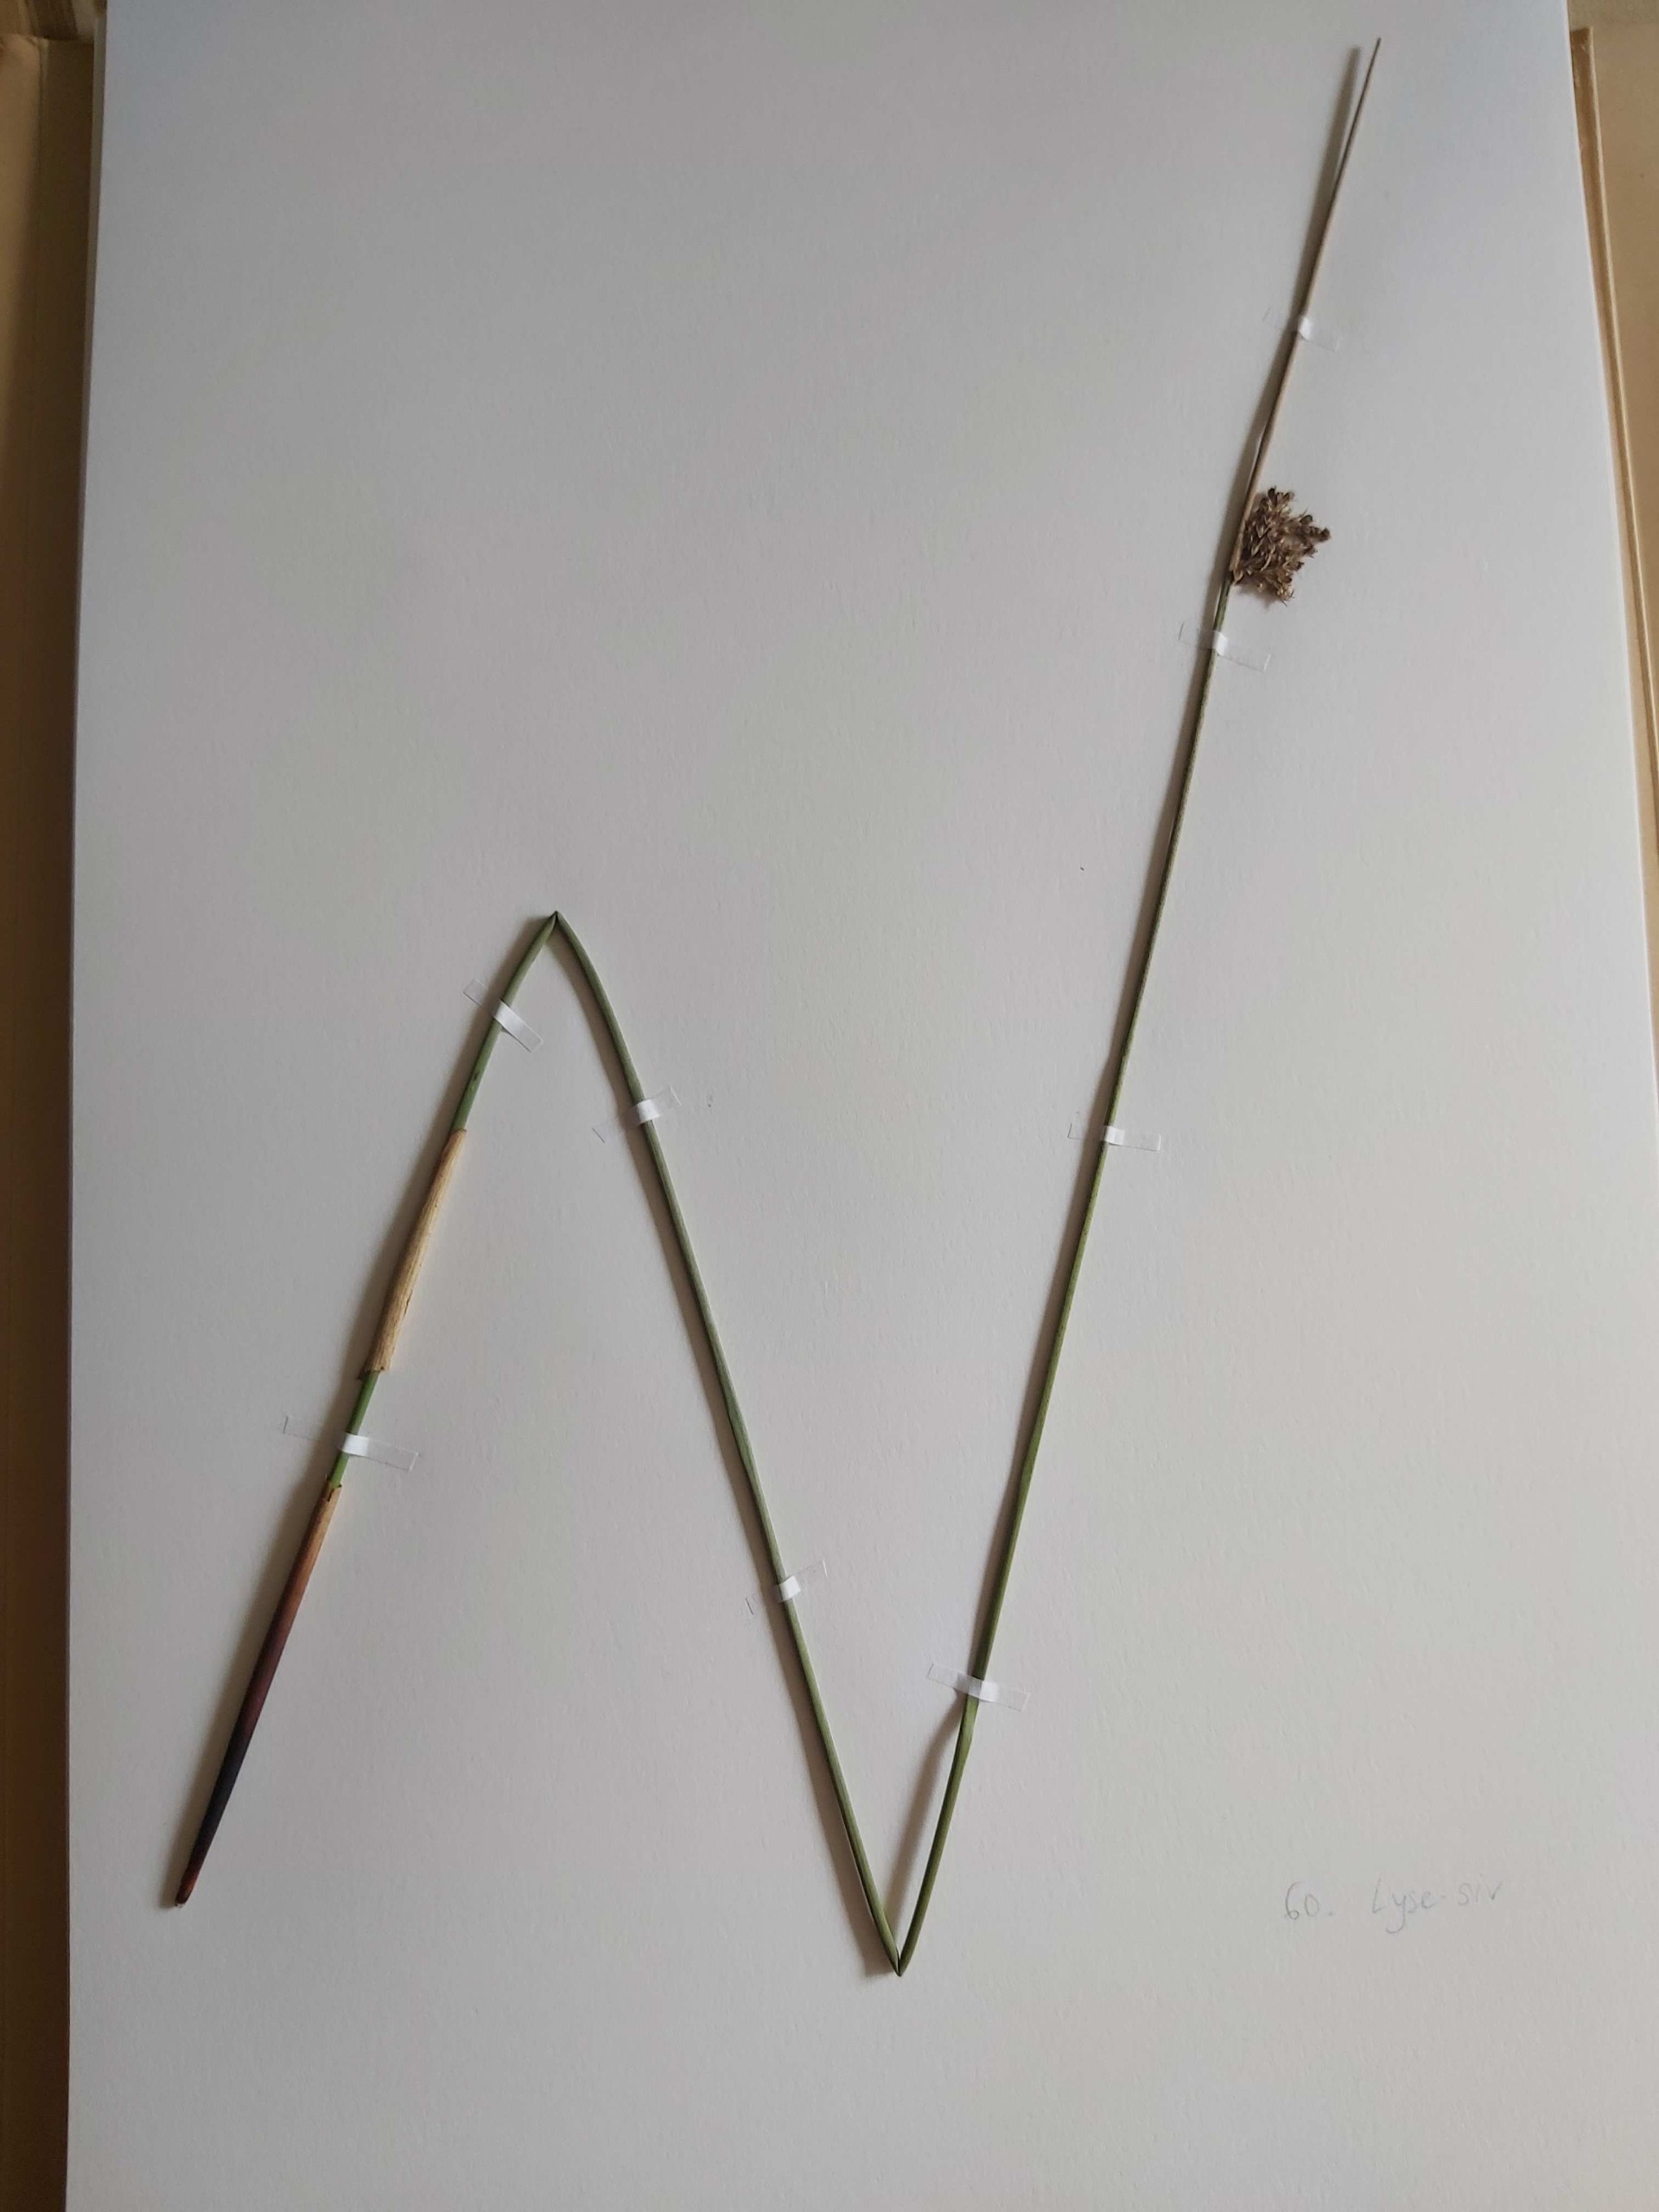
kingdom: Plantae
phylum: Tracheophyta
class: Liliopsida
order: Poales
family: Juncaceae
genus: Juncus
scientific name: Juncus effusus
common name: Lyse-siv
